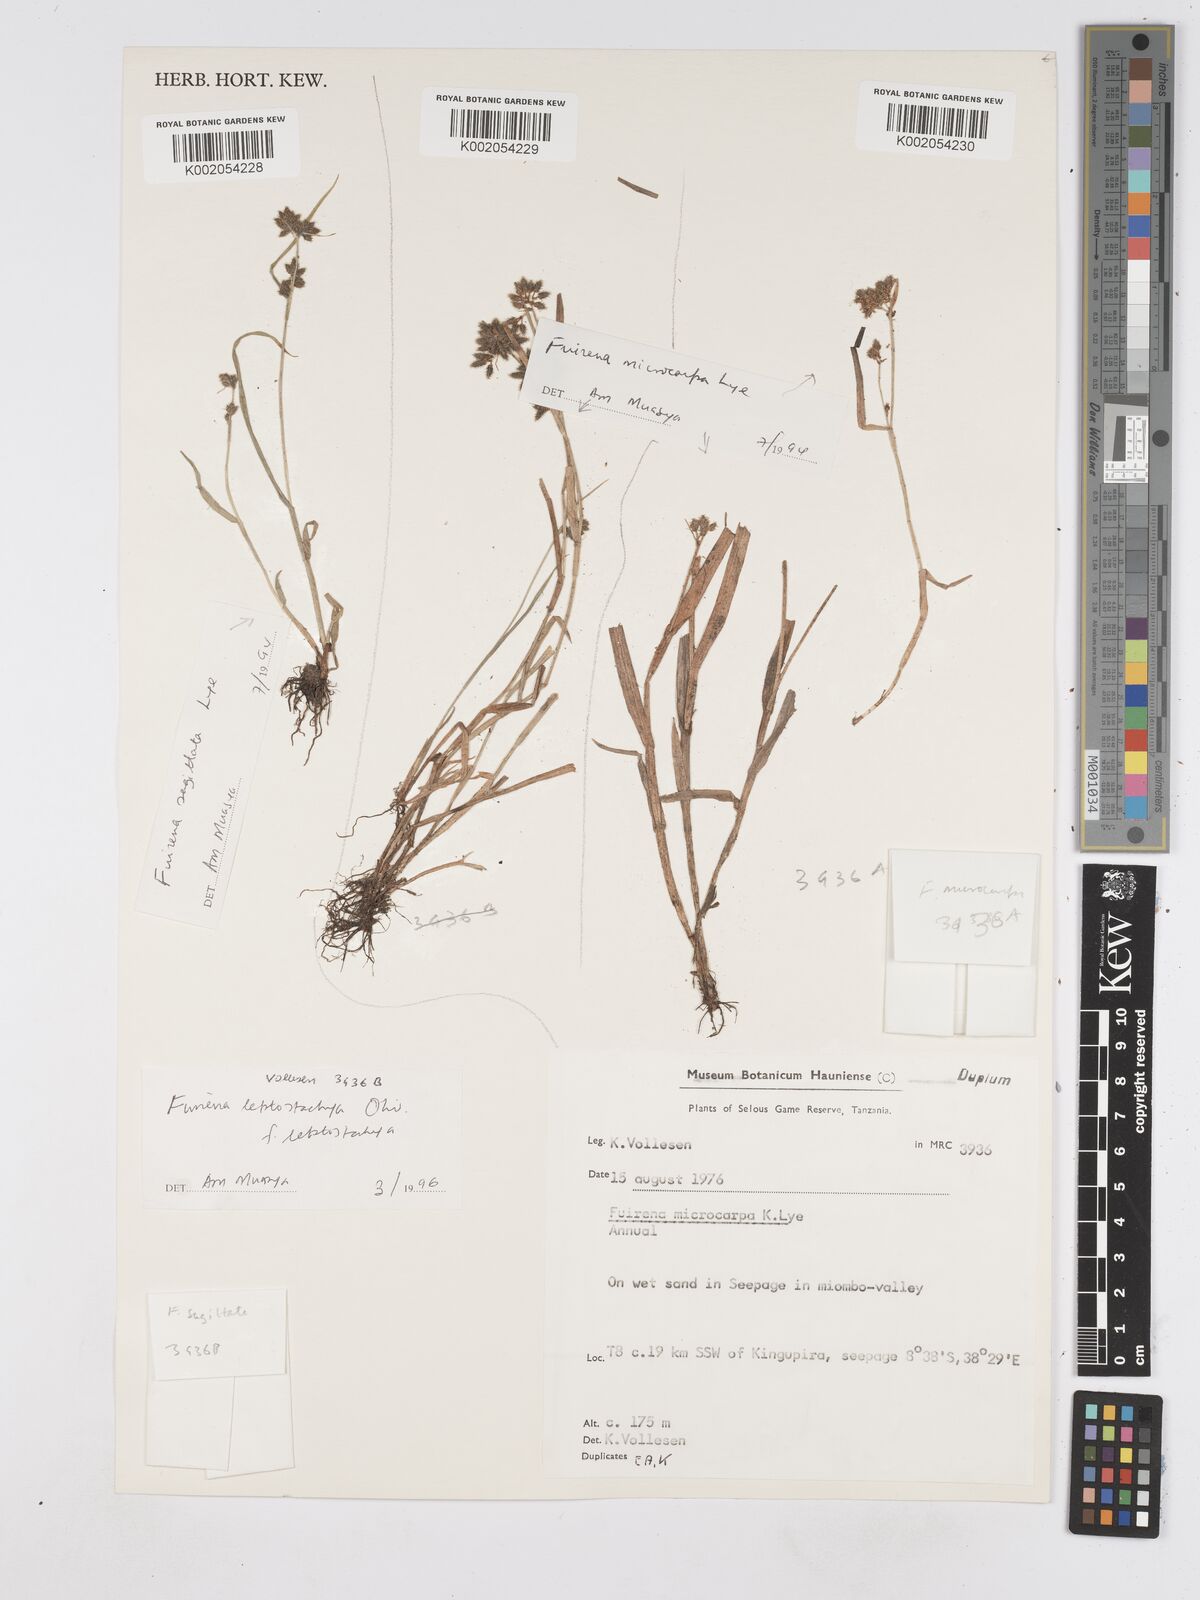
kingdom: Plantae
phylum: Tracheophyta
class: Liliopsida
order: Poales
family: Cyperaceae
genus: Fuirena
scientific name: Fuirena microcarpa
